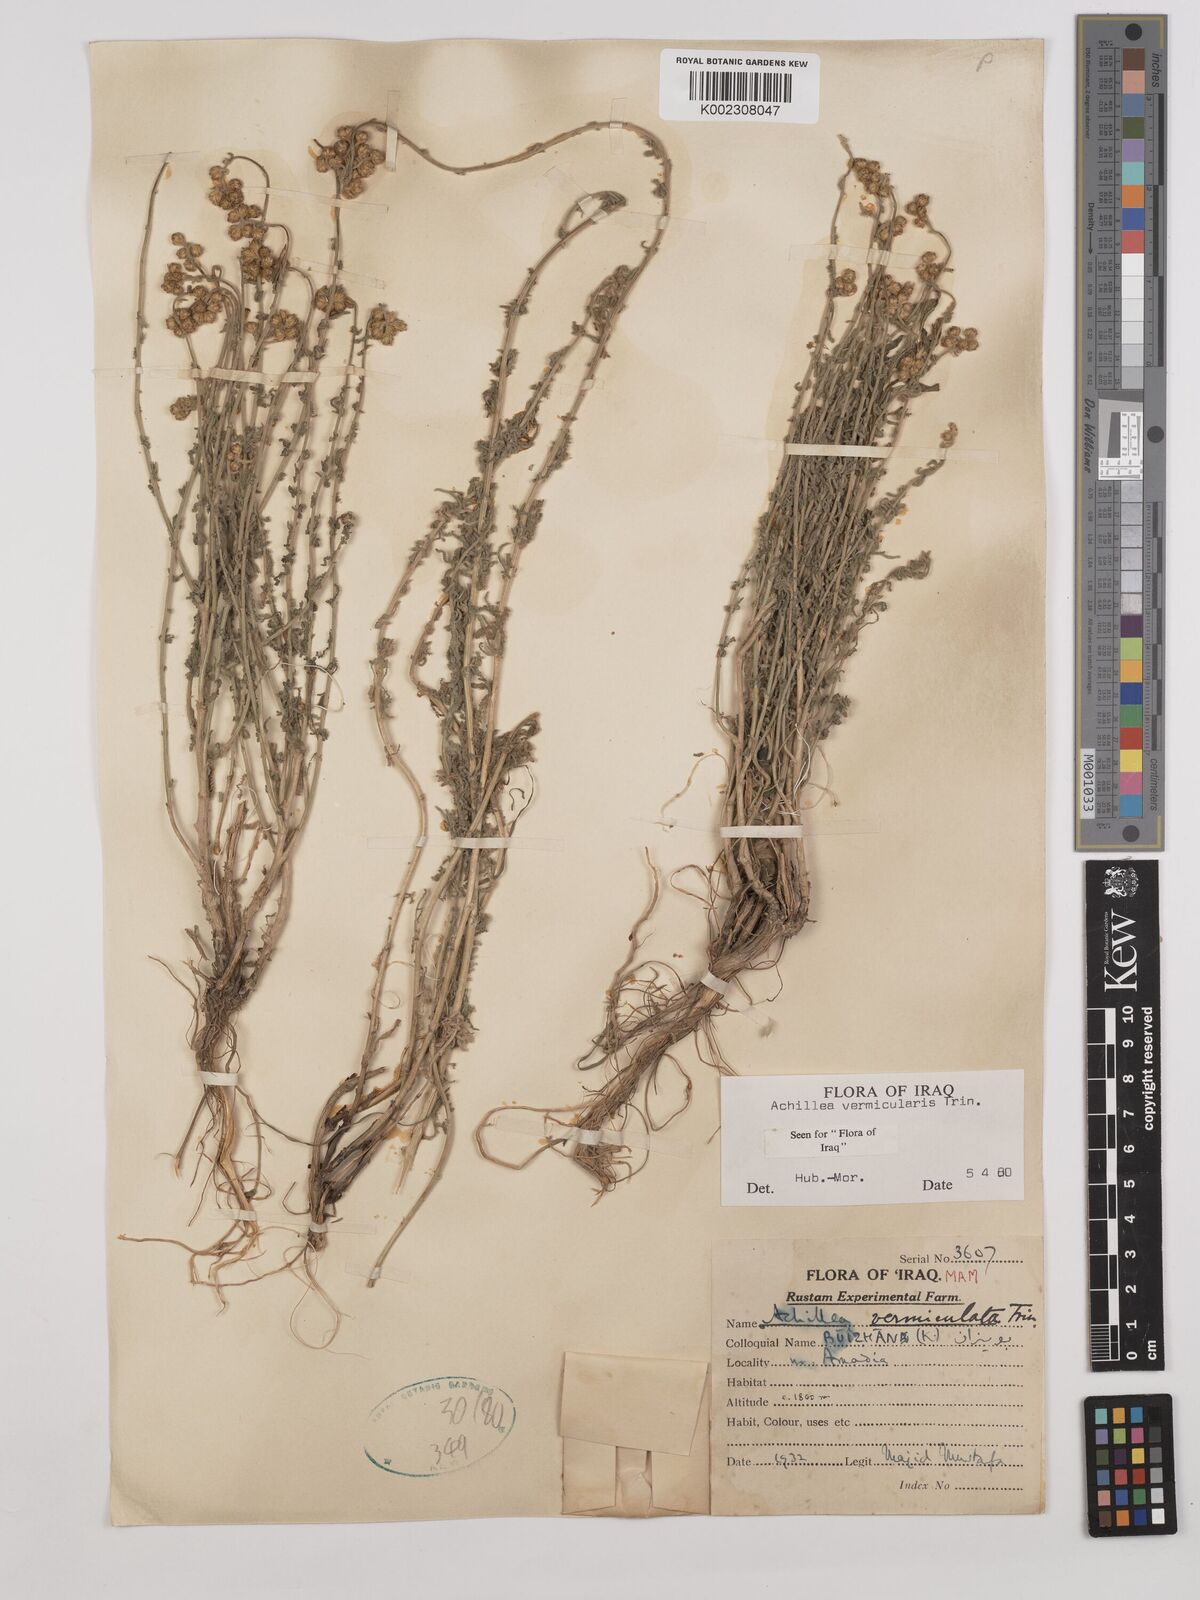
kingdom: Plantae
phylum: Tracheophyta
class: Magnoliopsida
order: Asterales
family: Asteraceae
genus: Achillea
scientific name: Achillea vermicularis
